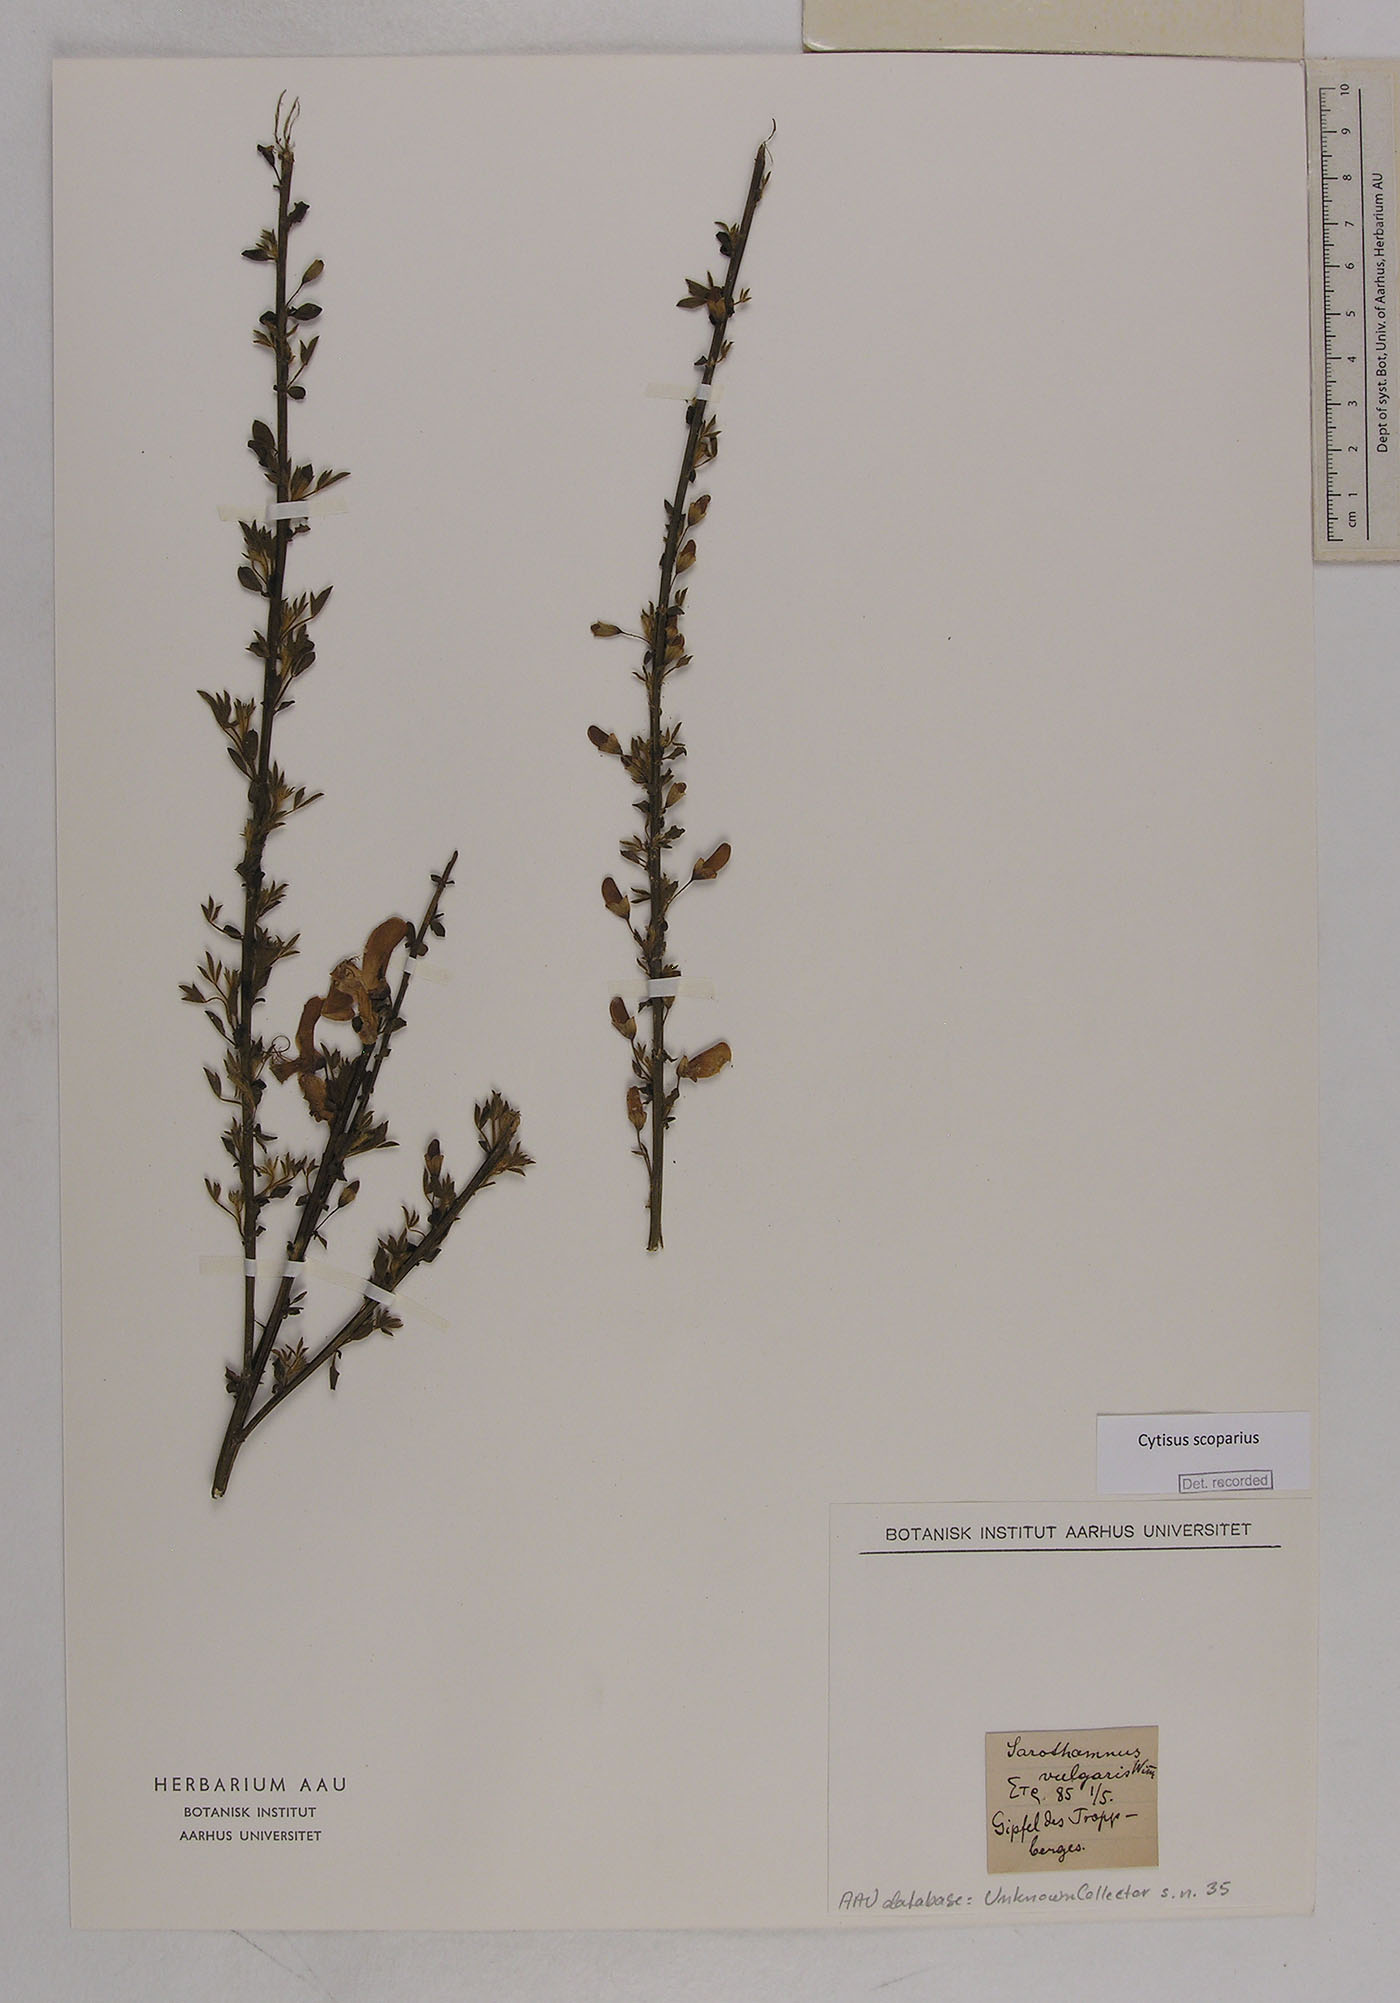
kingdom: Plantae
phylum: Tracheophyta
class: Magnoliopsida
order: Fabales
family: Fabaceae
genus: Cytisus
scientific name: Cytisus scoparius
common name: Scotch broom
